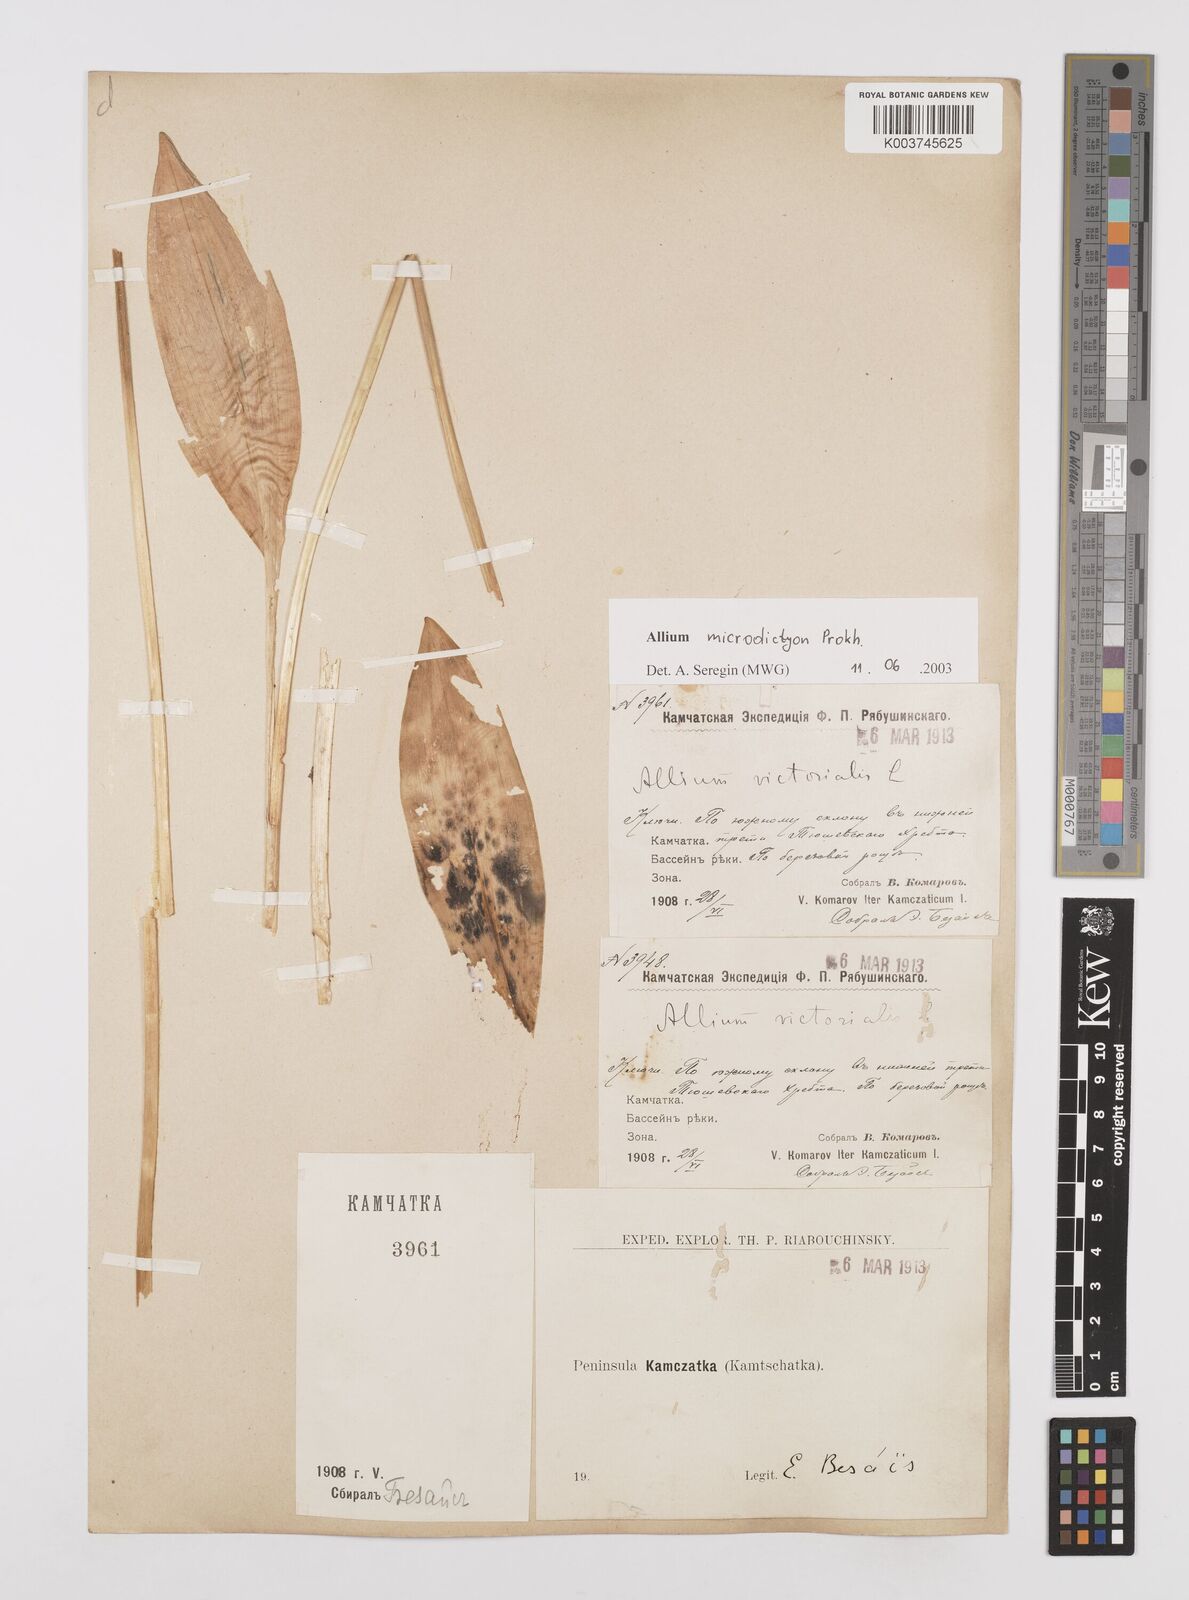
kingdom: Plantae
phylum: Tracheophyta
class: Liliopsida
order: Asparagales
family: Amaryllidaceae
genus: Allium
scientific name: Allium victorialis
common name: Alpine leek
